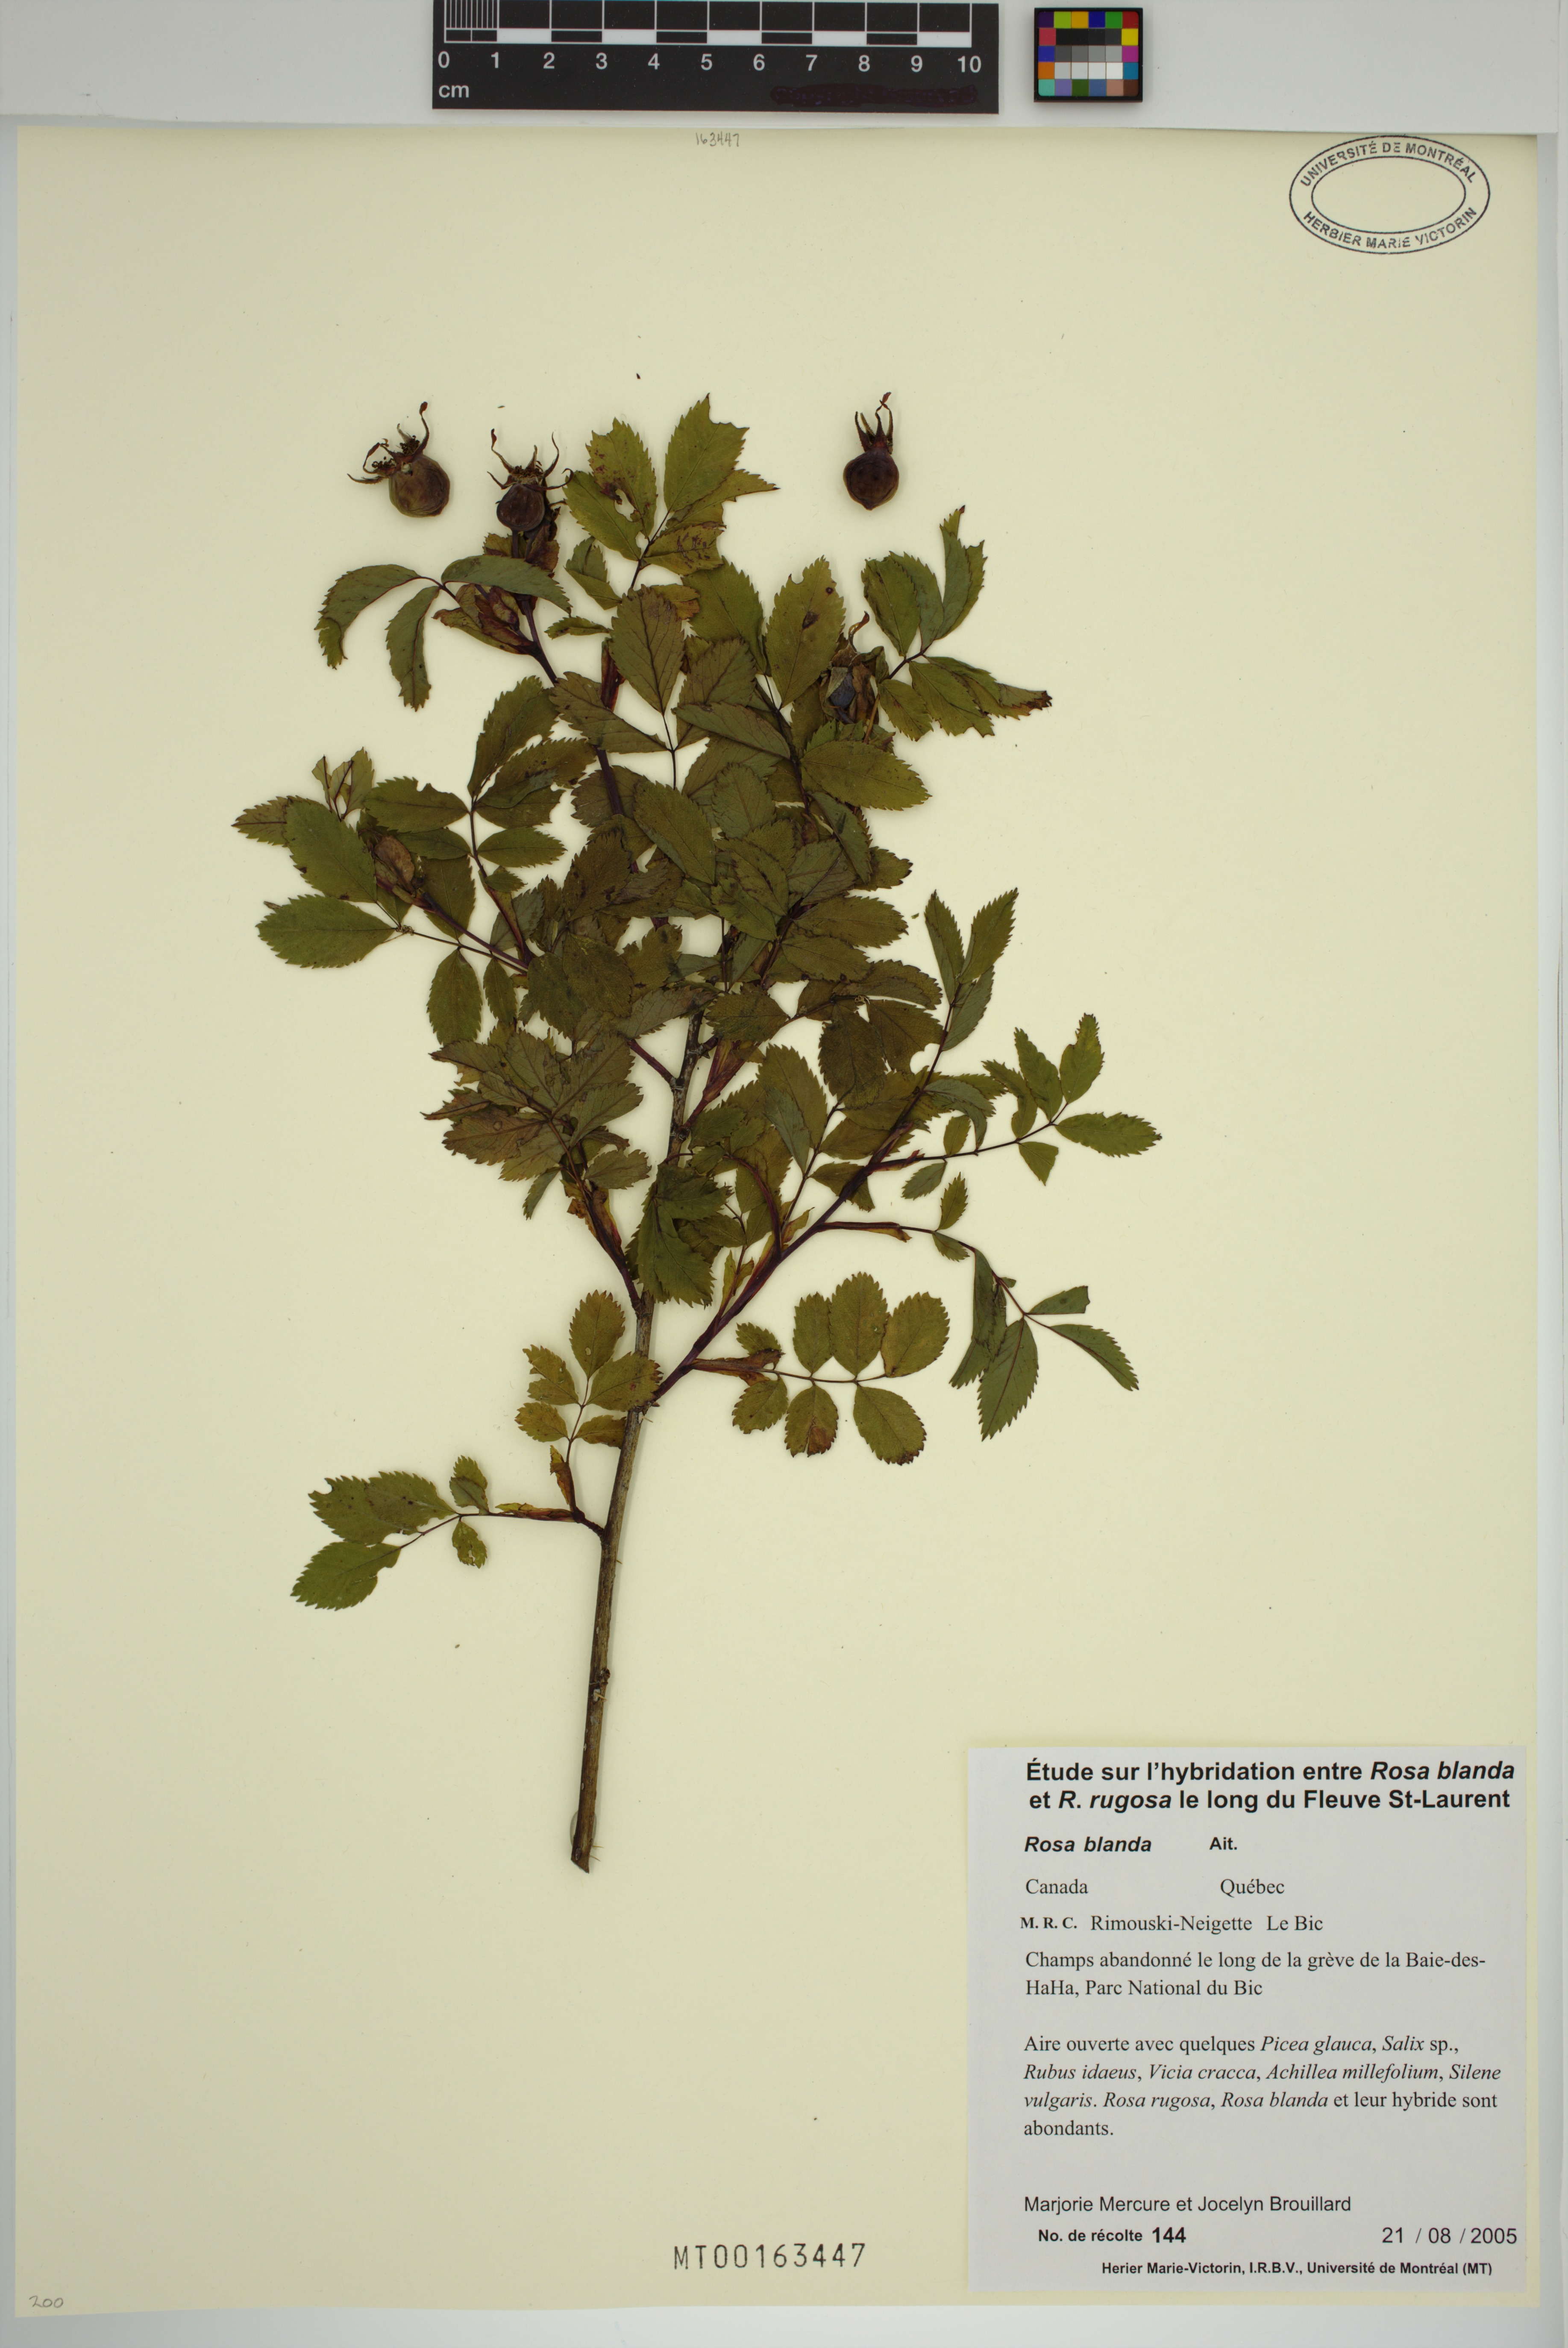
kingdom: Plantae
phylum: Tracheophyta
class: Magnoliopsida
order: Rosales
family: Rosaceae
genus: Rosa
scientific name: Rosa blanda
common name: Smooth rose
